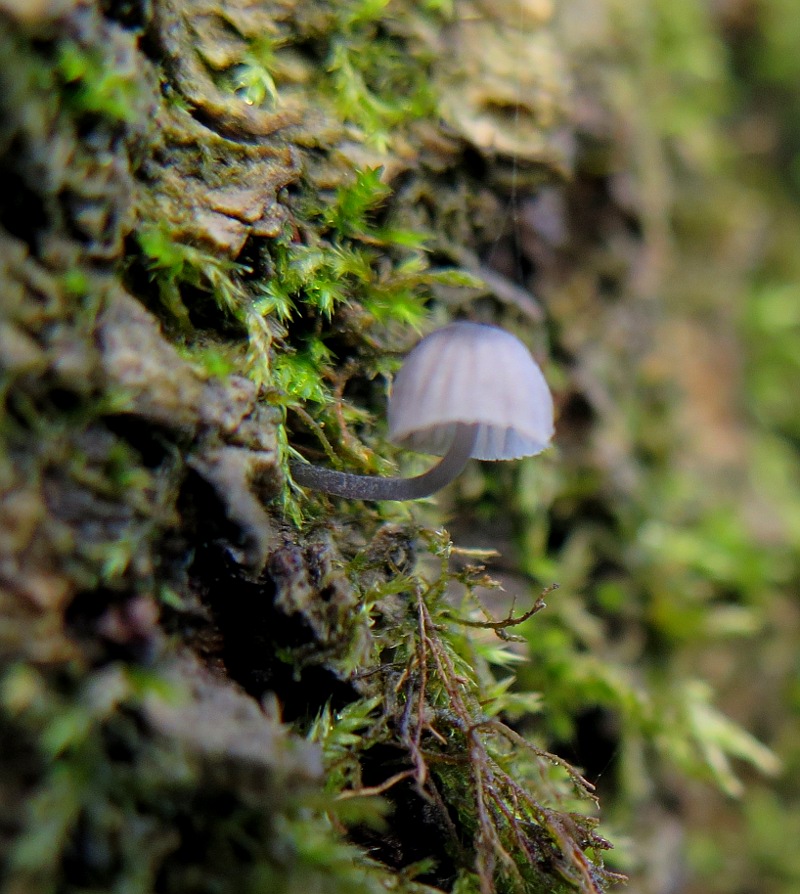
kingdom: Fungi
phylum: Basidiomycota
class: Agaricomycetes
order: Agaricales
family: Mycenaceae
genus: Mycena
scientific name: Mycena pseudocorticola
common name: gråblå bark-huesvamp
